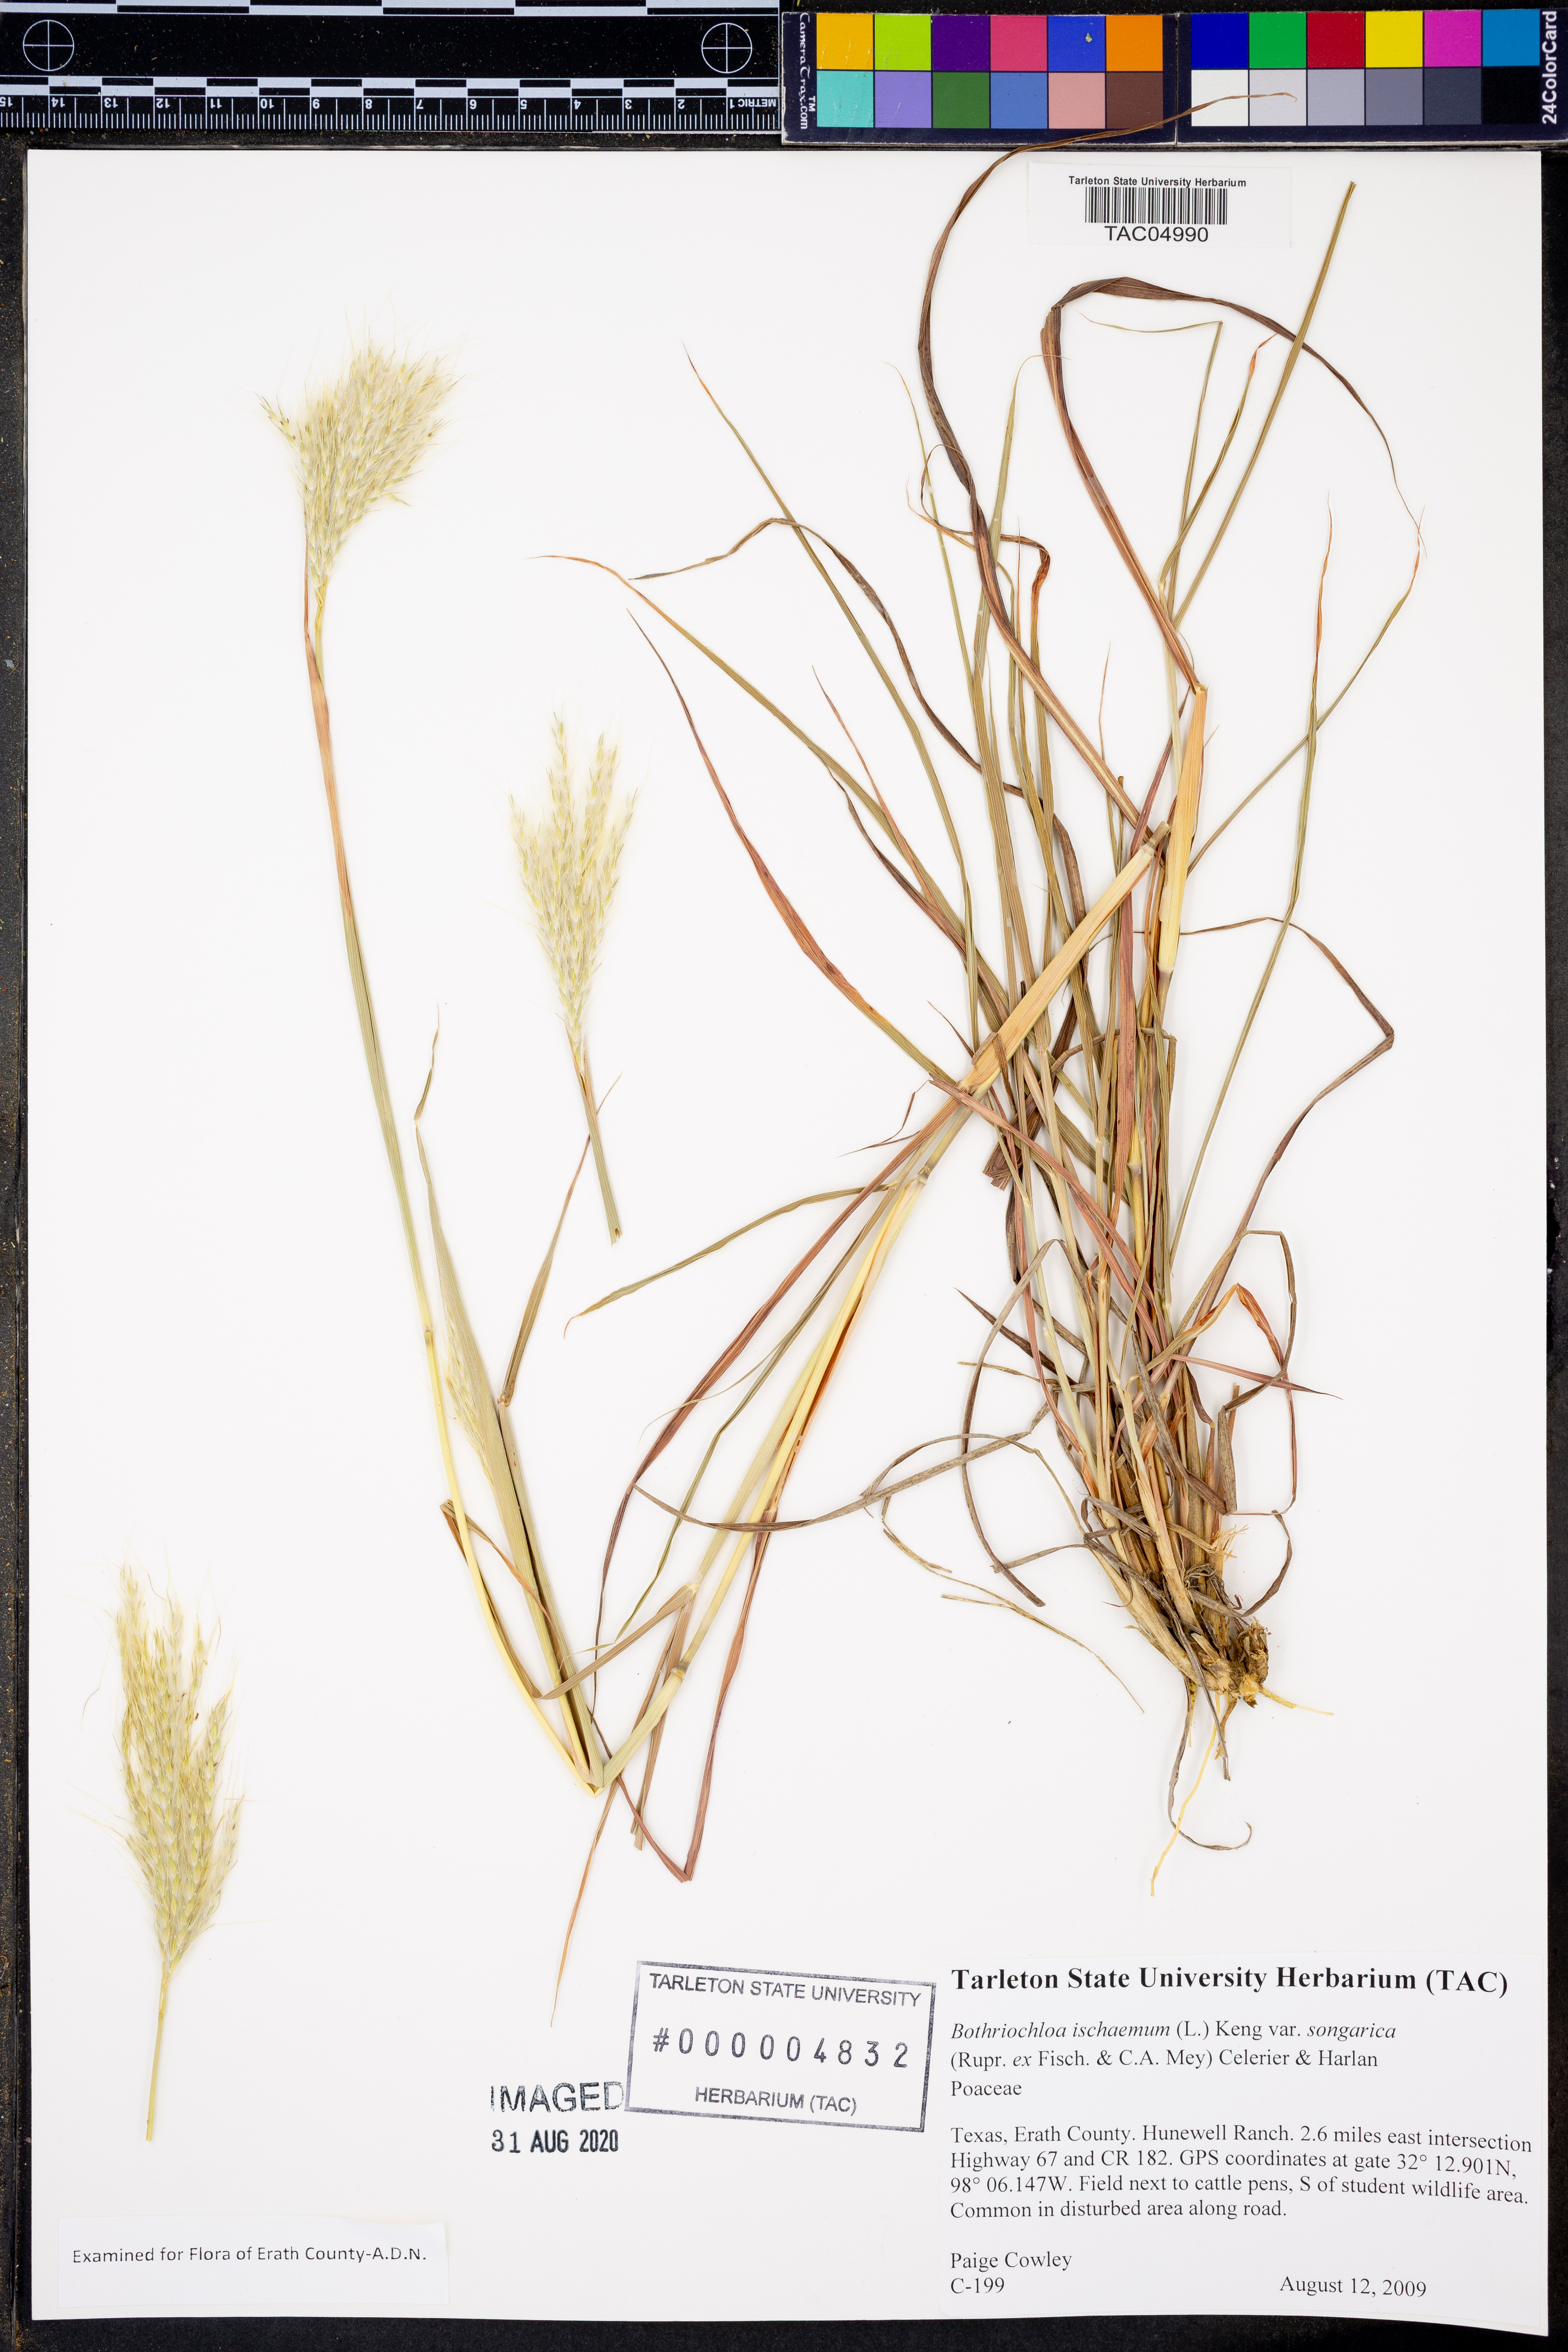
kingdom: Plantae
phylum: Tracheophyta
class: Liliopsida
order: Poales
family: Poaceae
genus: Bothriochloa
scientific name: Bothriochloa ischaemum
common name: Yellow bluestem
